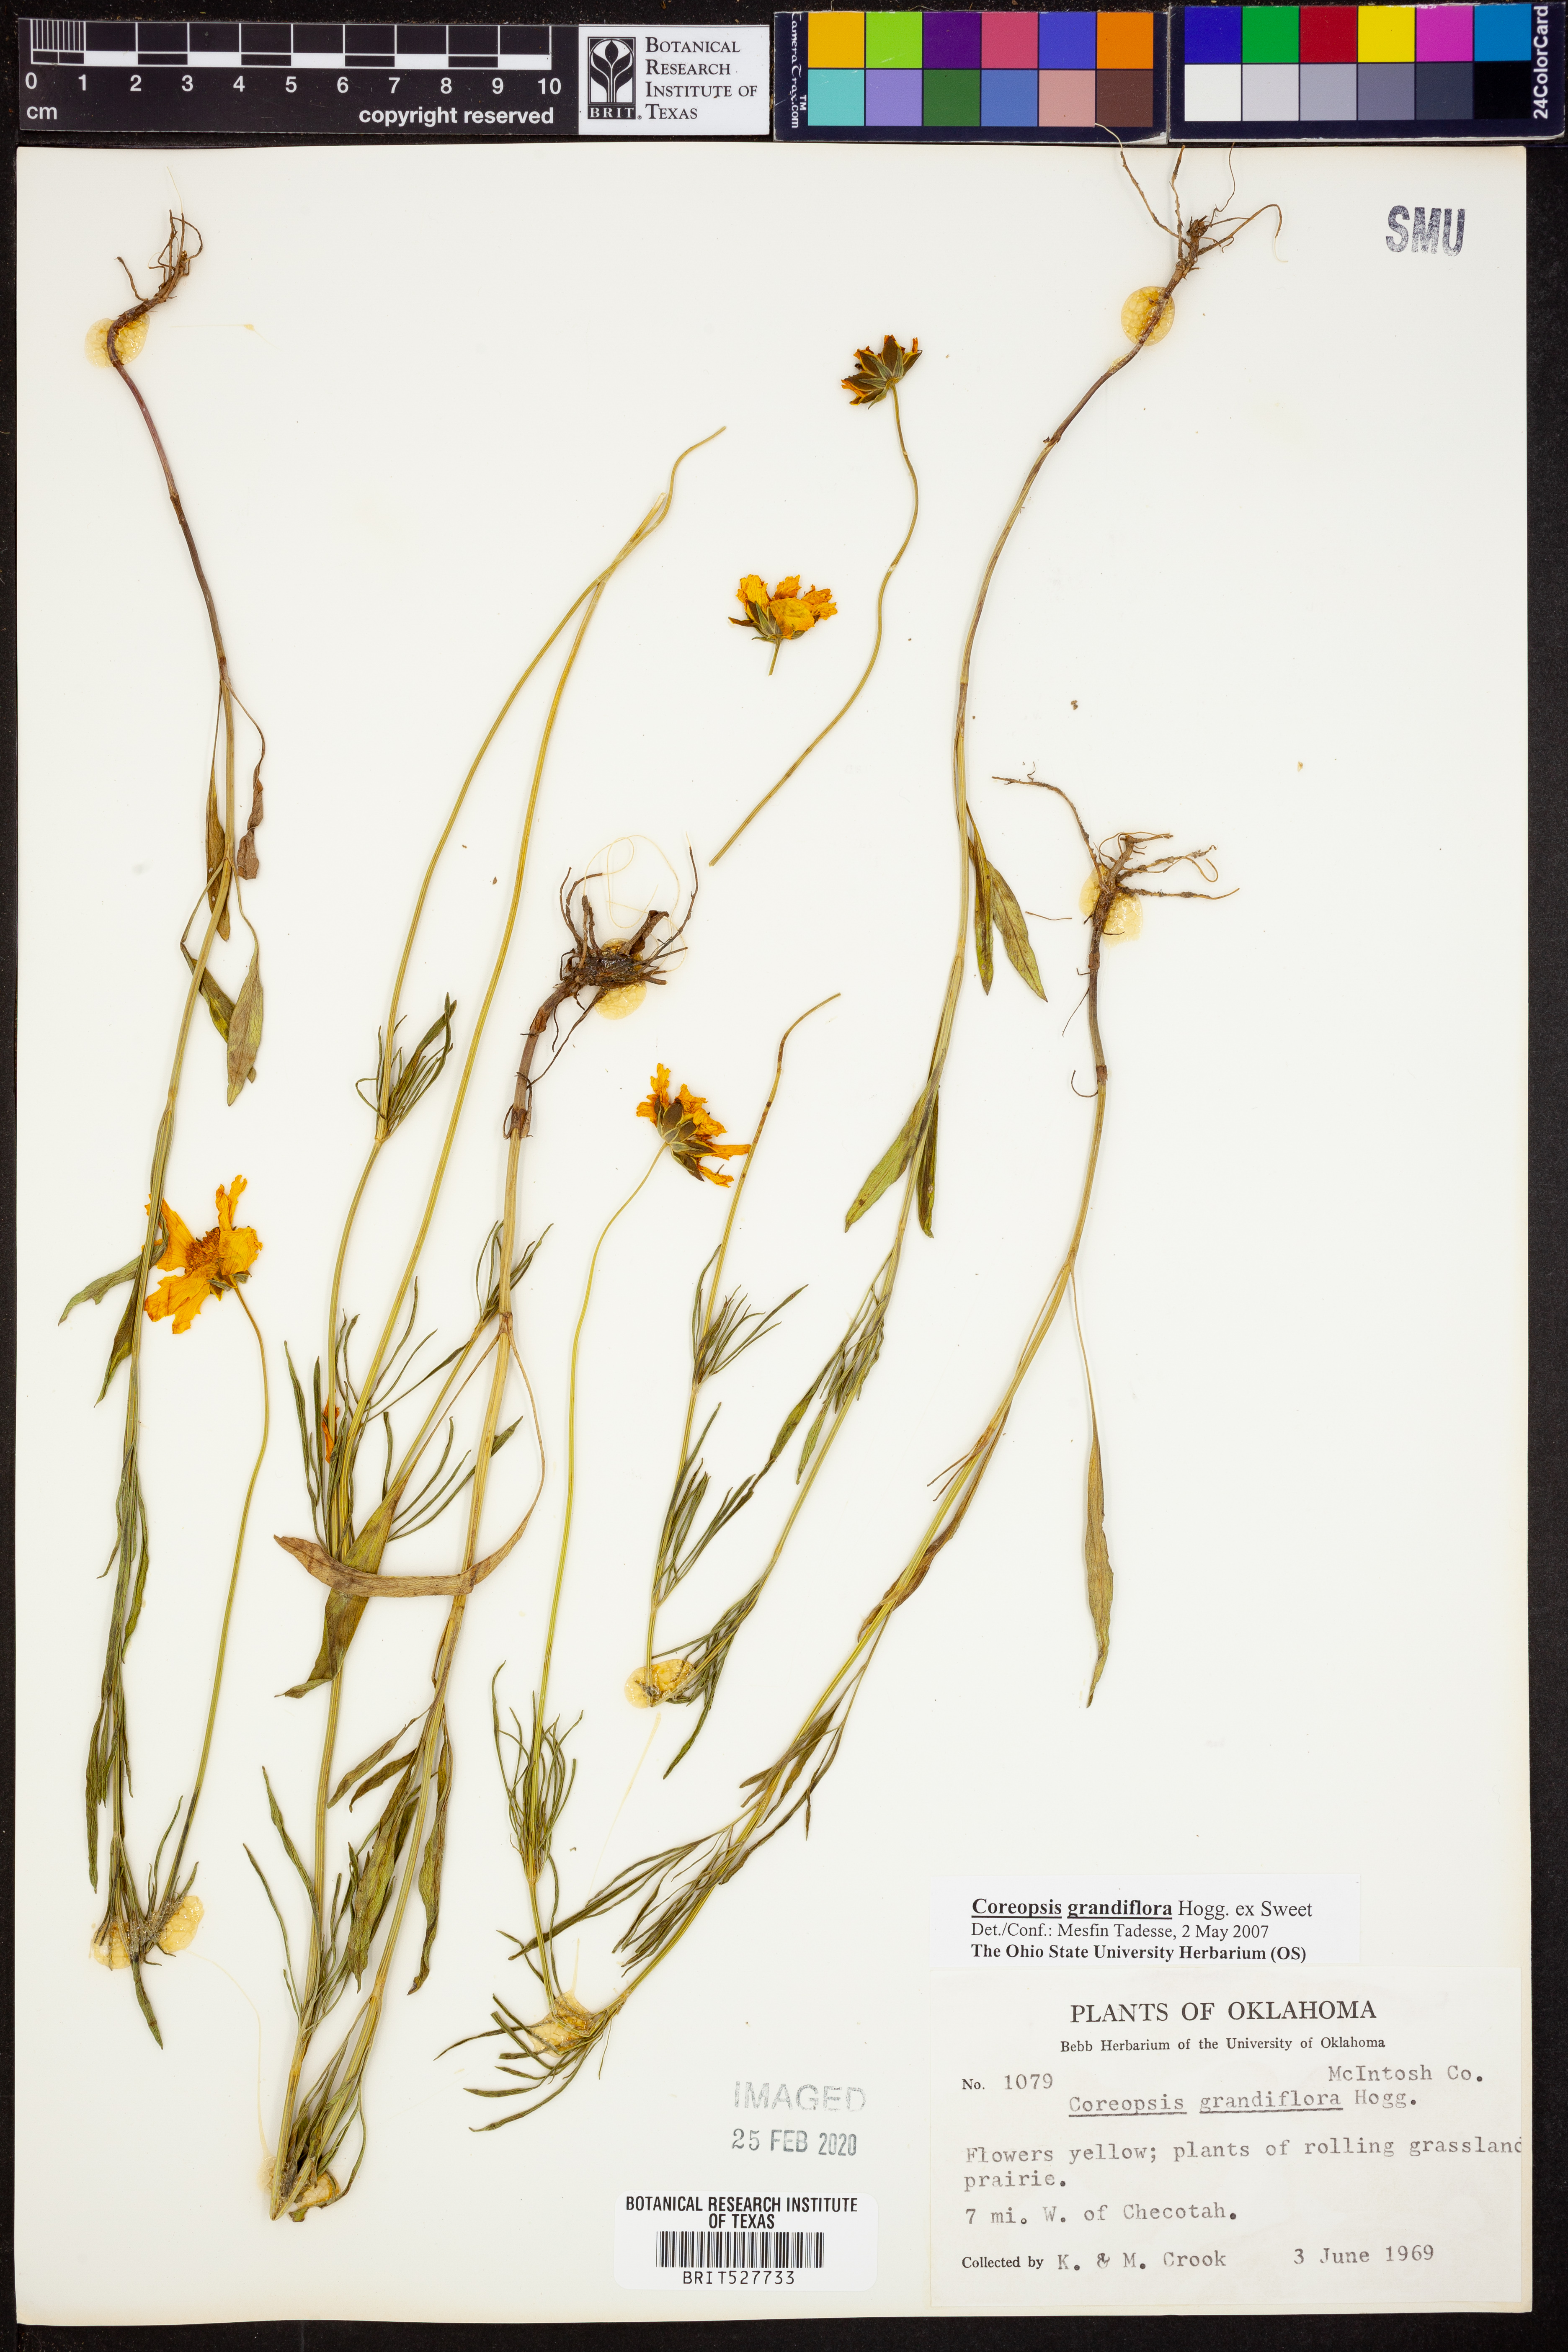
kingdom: Plantae
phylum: Tracheophyta
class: Magnoliopsida
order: Asterales
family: Asteraceae
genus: Coreopsis
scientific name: Coreopsis grandiflora
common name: Large-flowered tickseed
